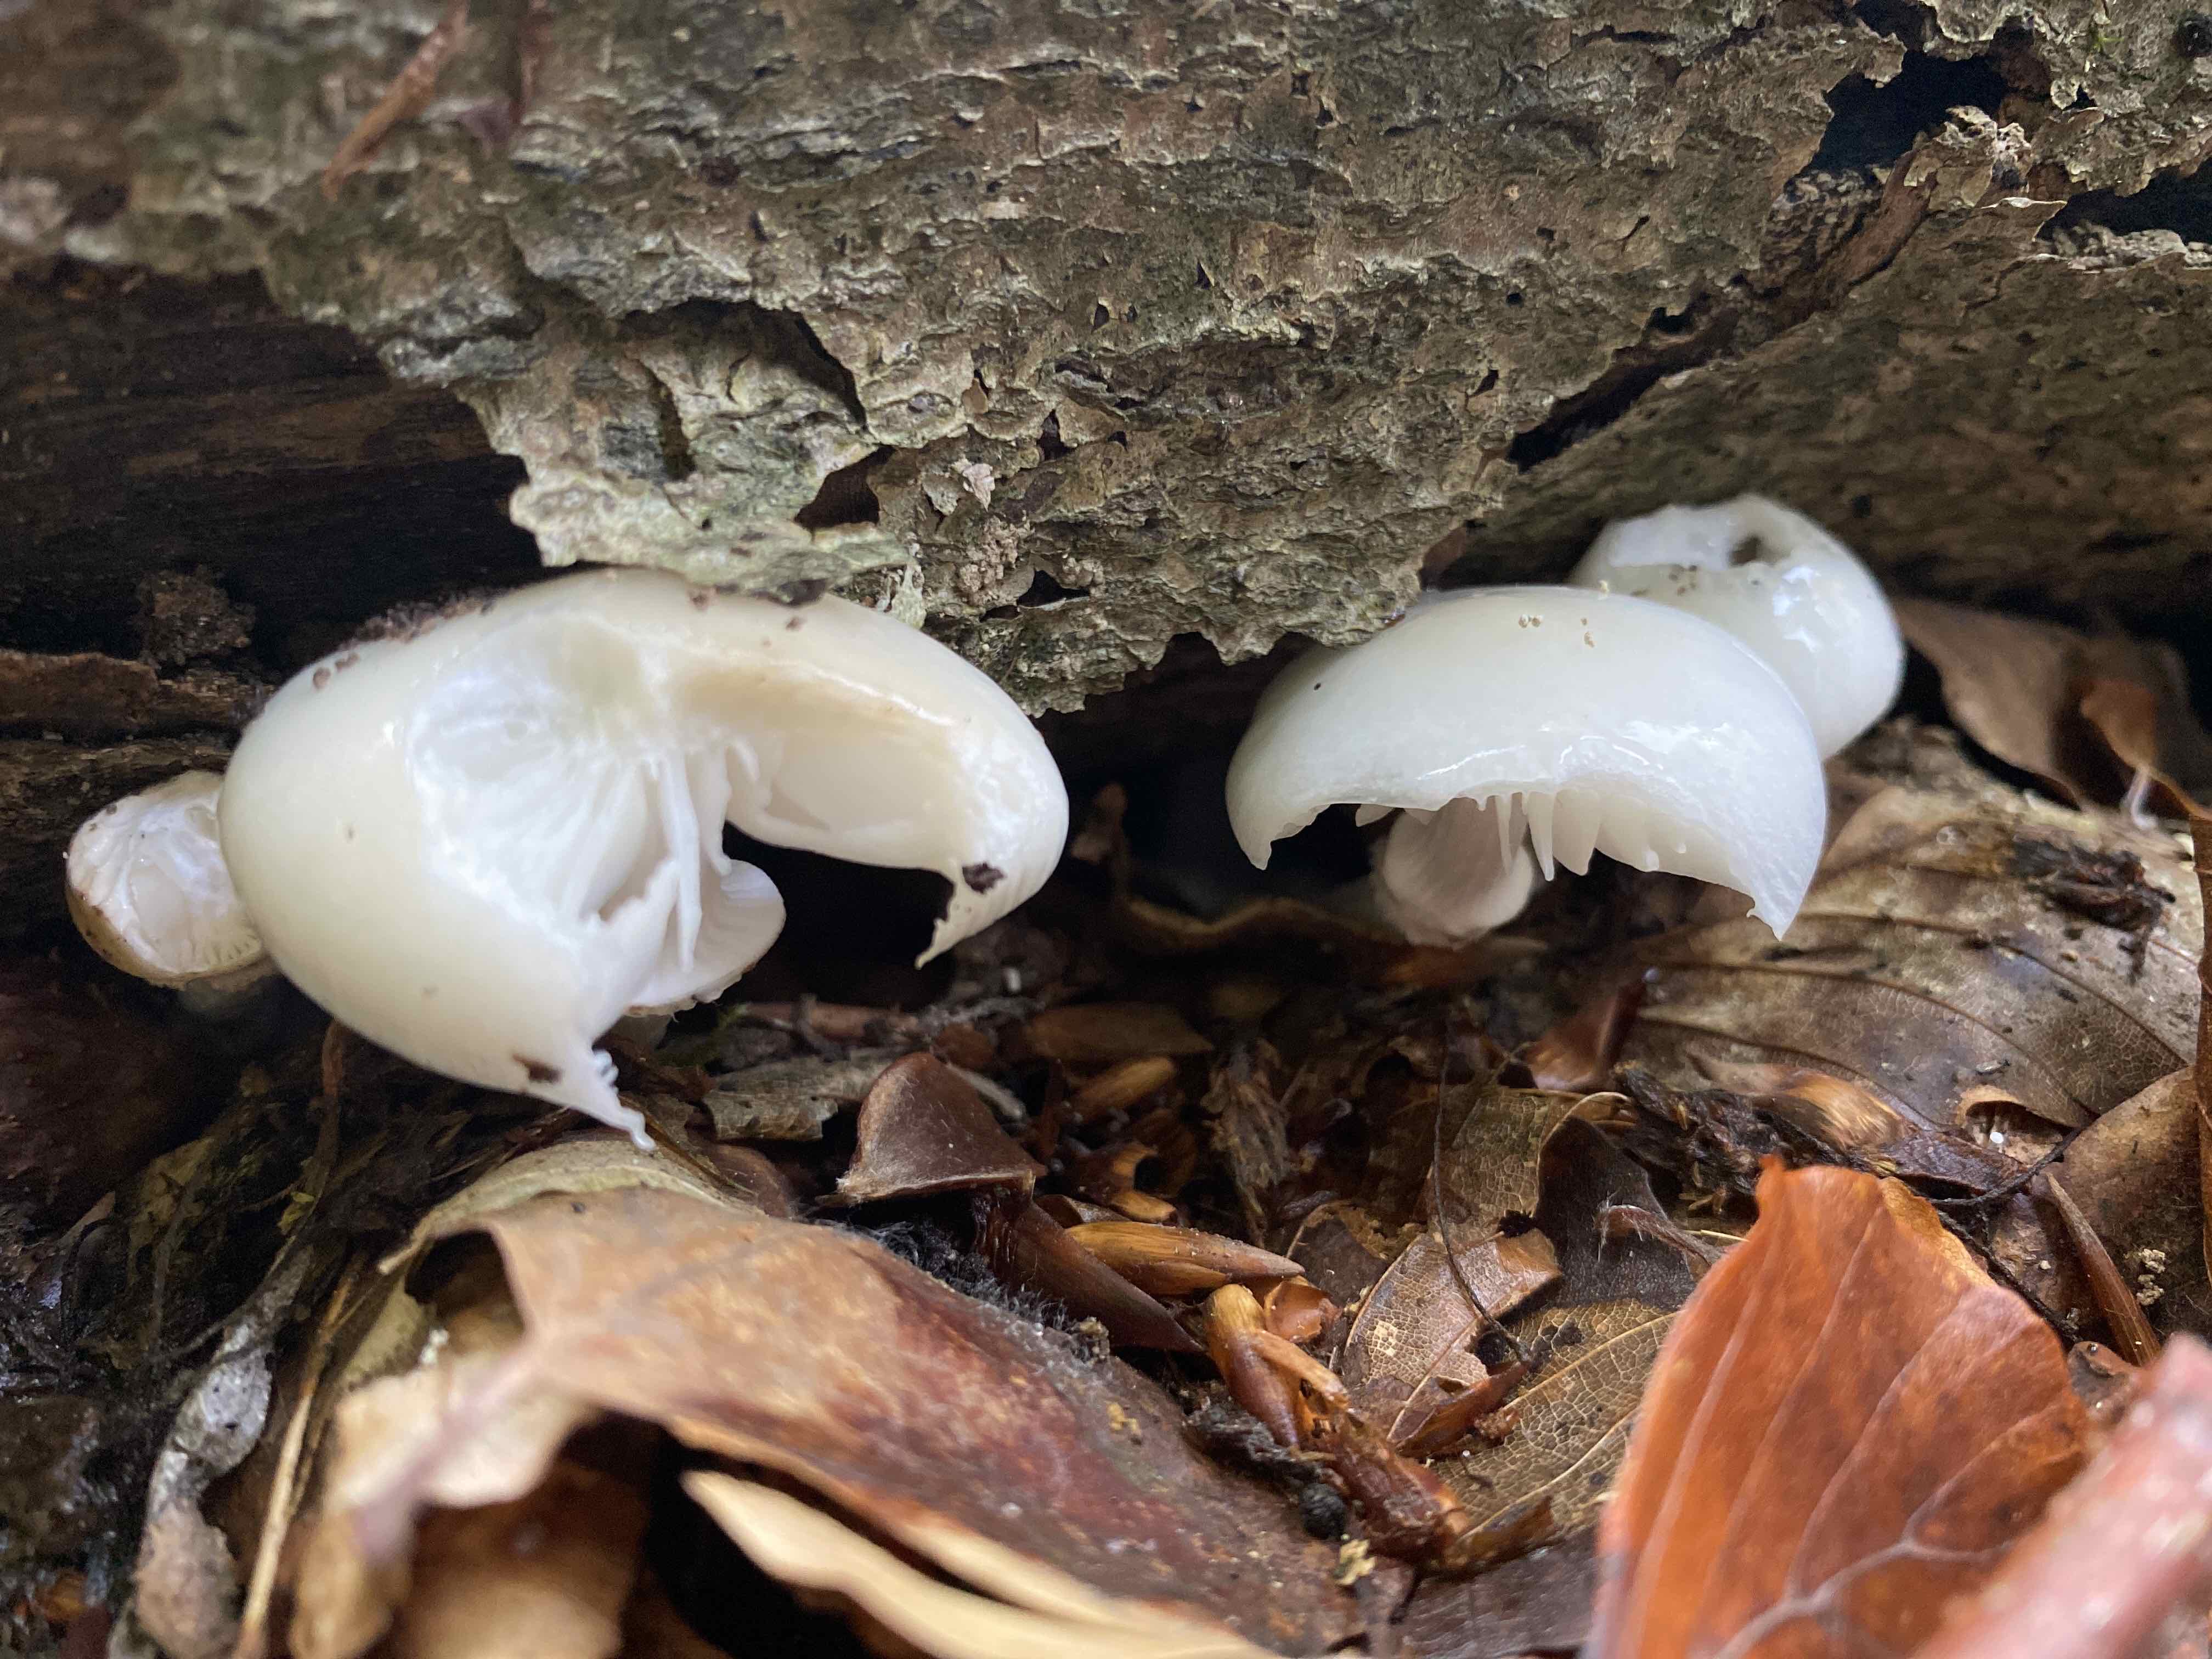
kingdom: Fungi
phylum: Basidiomycota
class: Agaricomycetes
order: Agaricales
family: Physalacriaceae
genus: Mucidula
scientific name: Mucidula mucida
